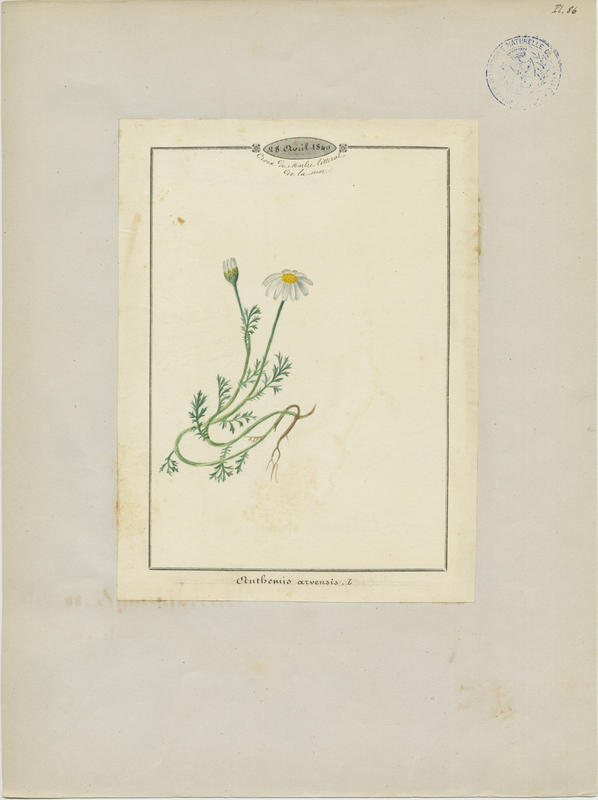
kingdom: Plantae
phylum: Tracheophyta
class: Magnoliopsida
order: Asterales
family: Asteraceae
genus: Anthemis
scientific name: Anthemis arvensis
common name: Corn chamomile
